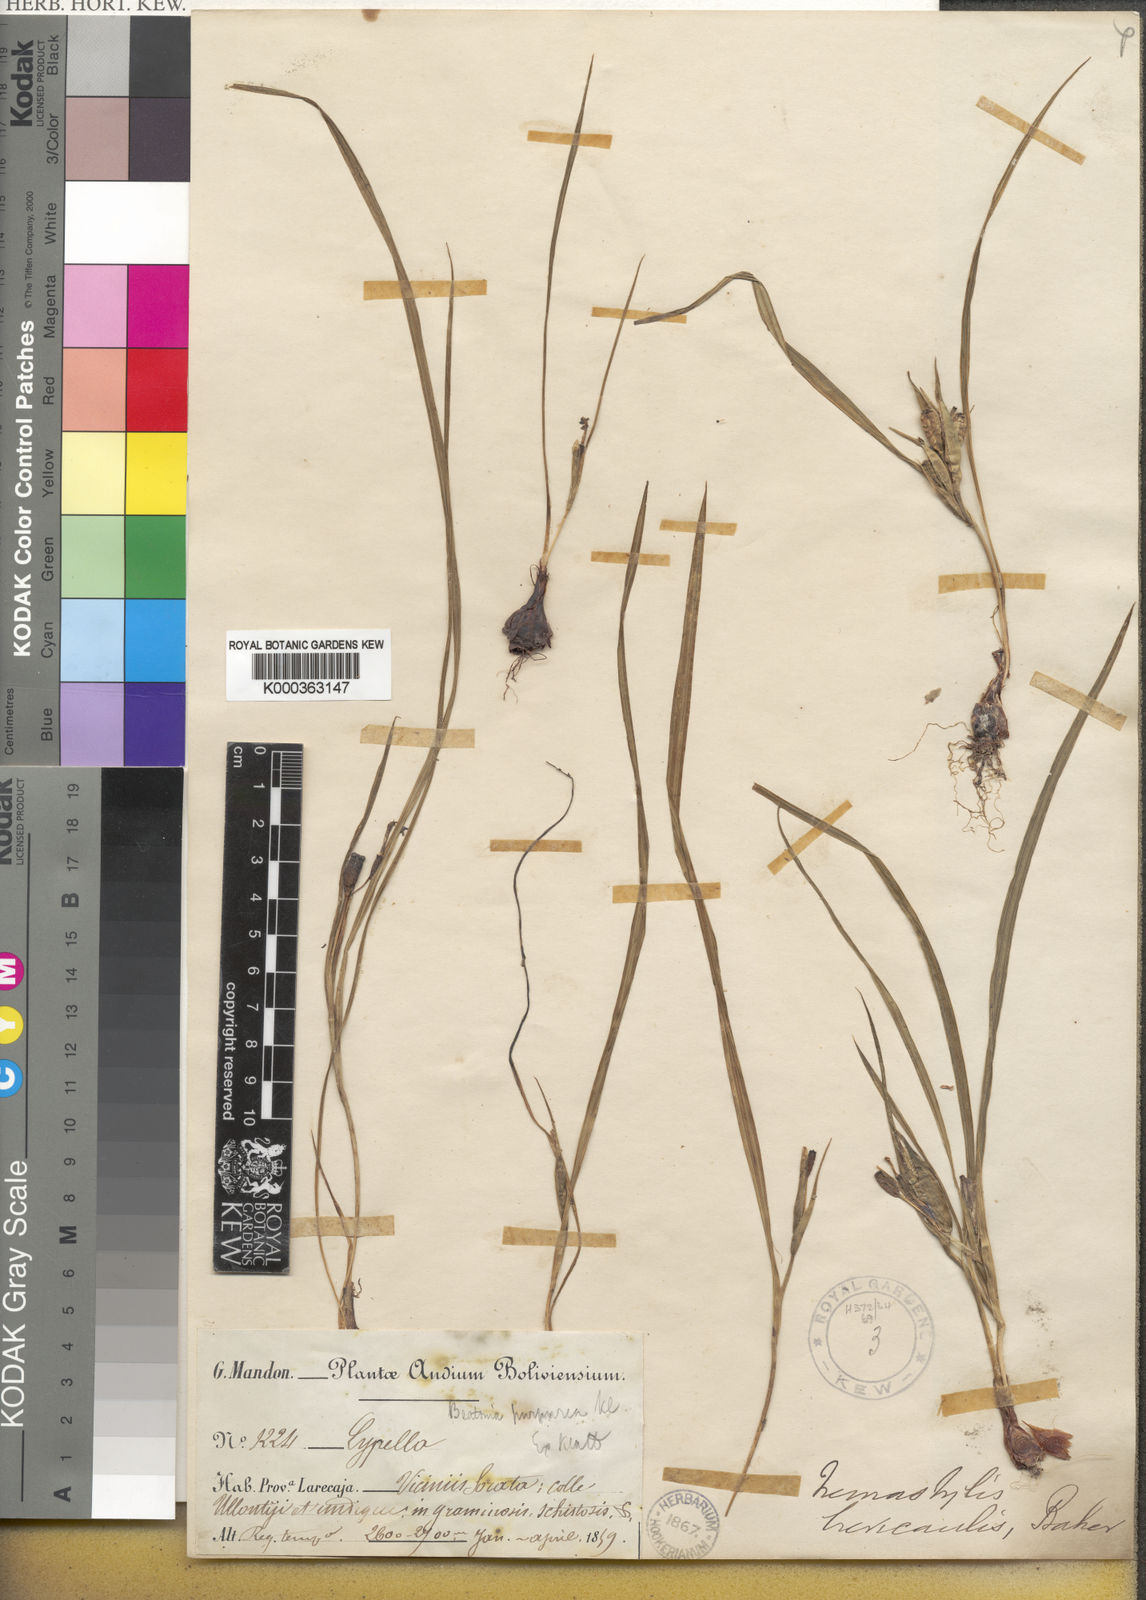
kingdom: Plantae
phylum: Tracheophyta
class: Liliopsida
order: Asparagales
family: Iridaceae
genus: Mastigostyla
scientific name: Mastigostyla brevicaulis
